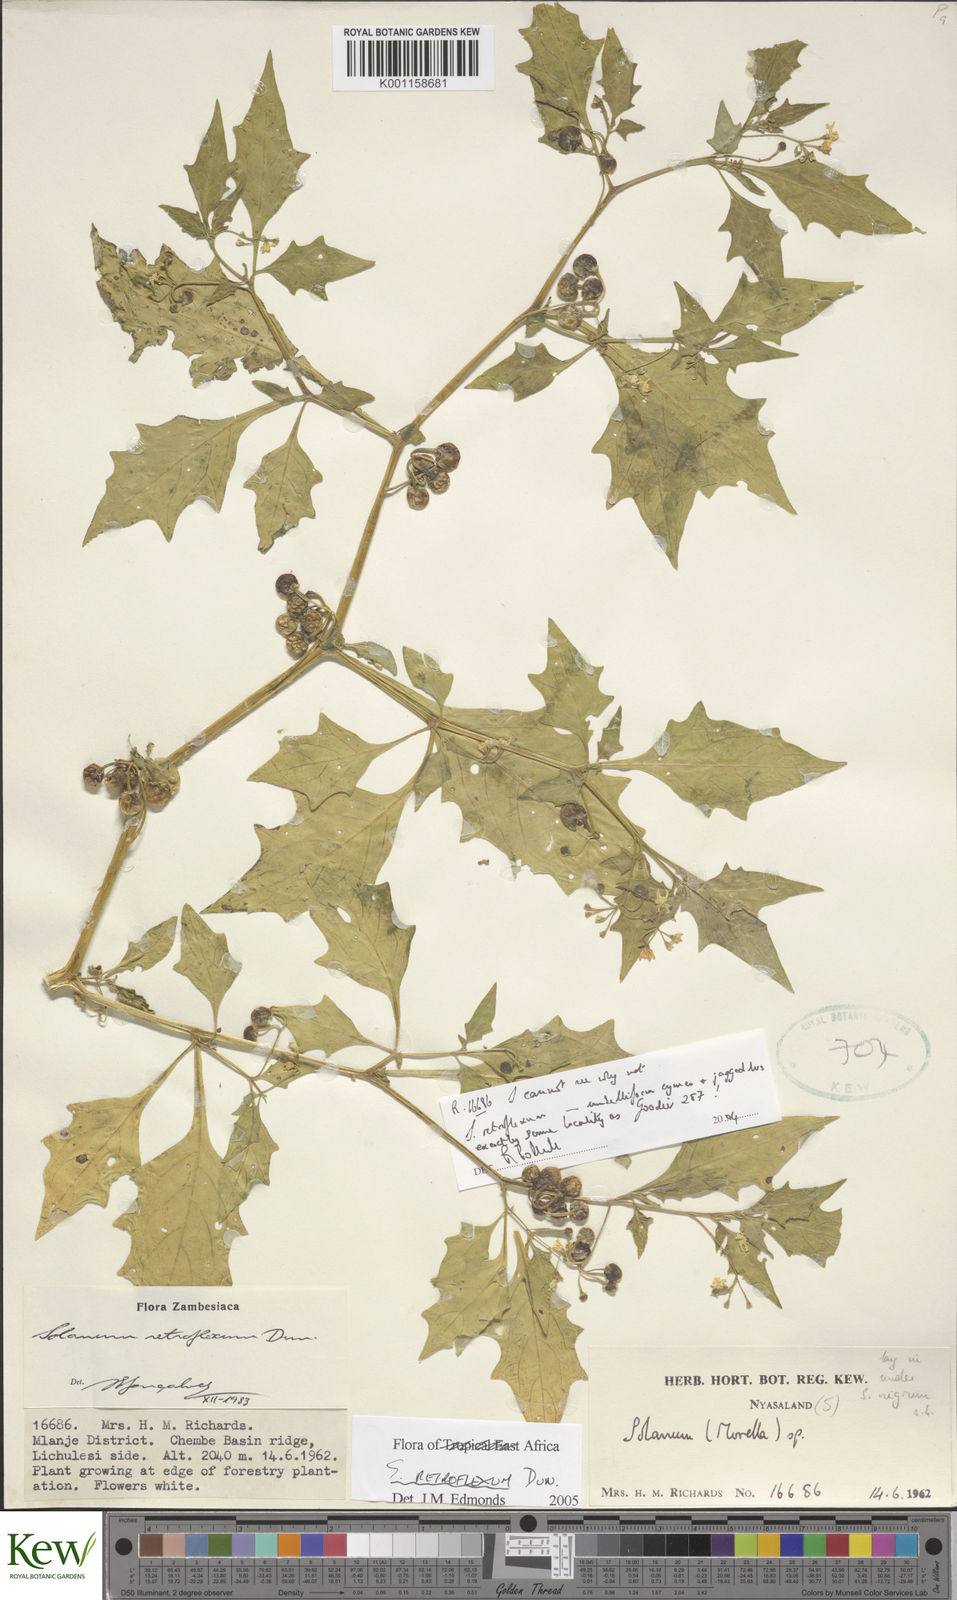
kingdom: Plantae
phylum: Tracheophyta
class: Magnoliopsida
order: Solanales
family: Solanaceae
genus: Solanum
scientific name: Solanum retroflexum
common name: Wonderberry
